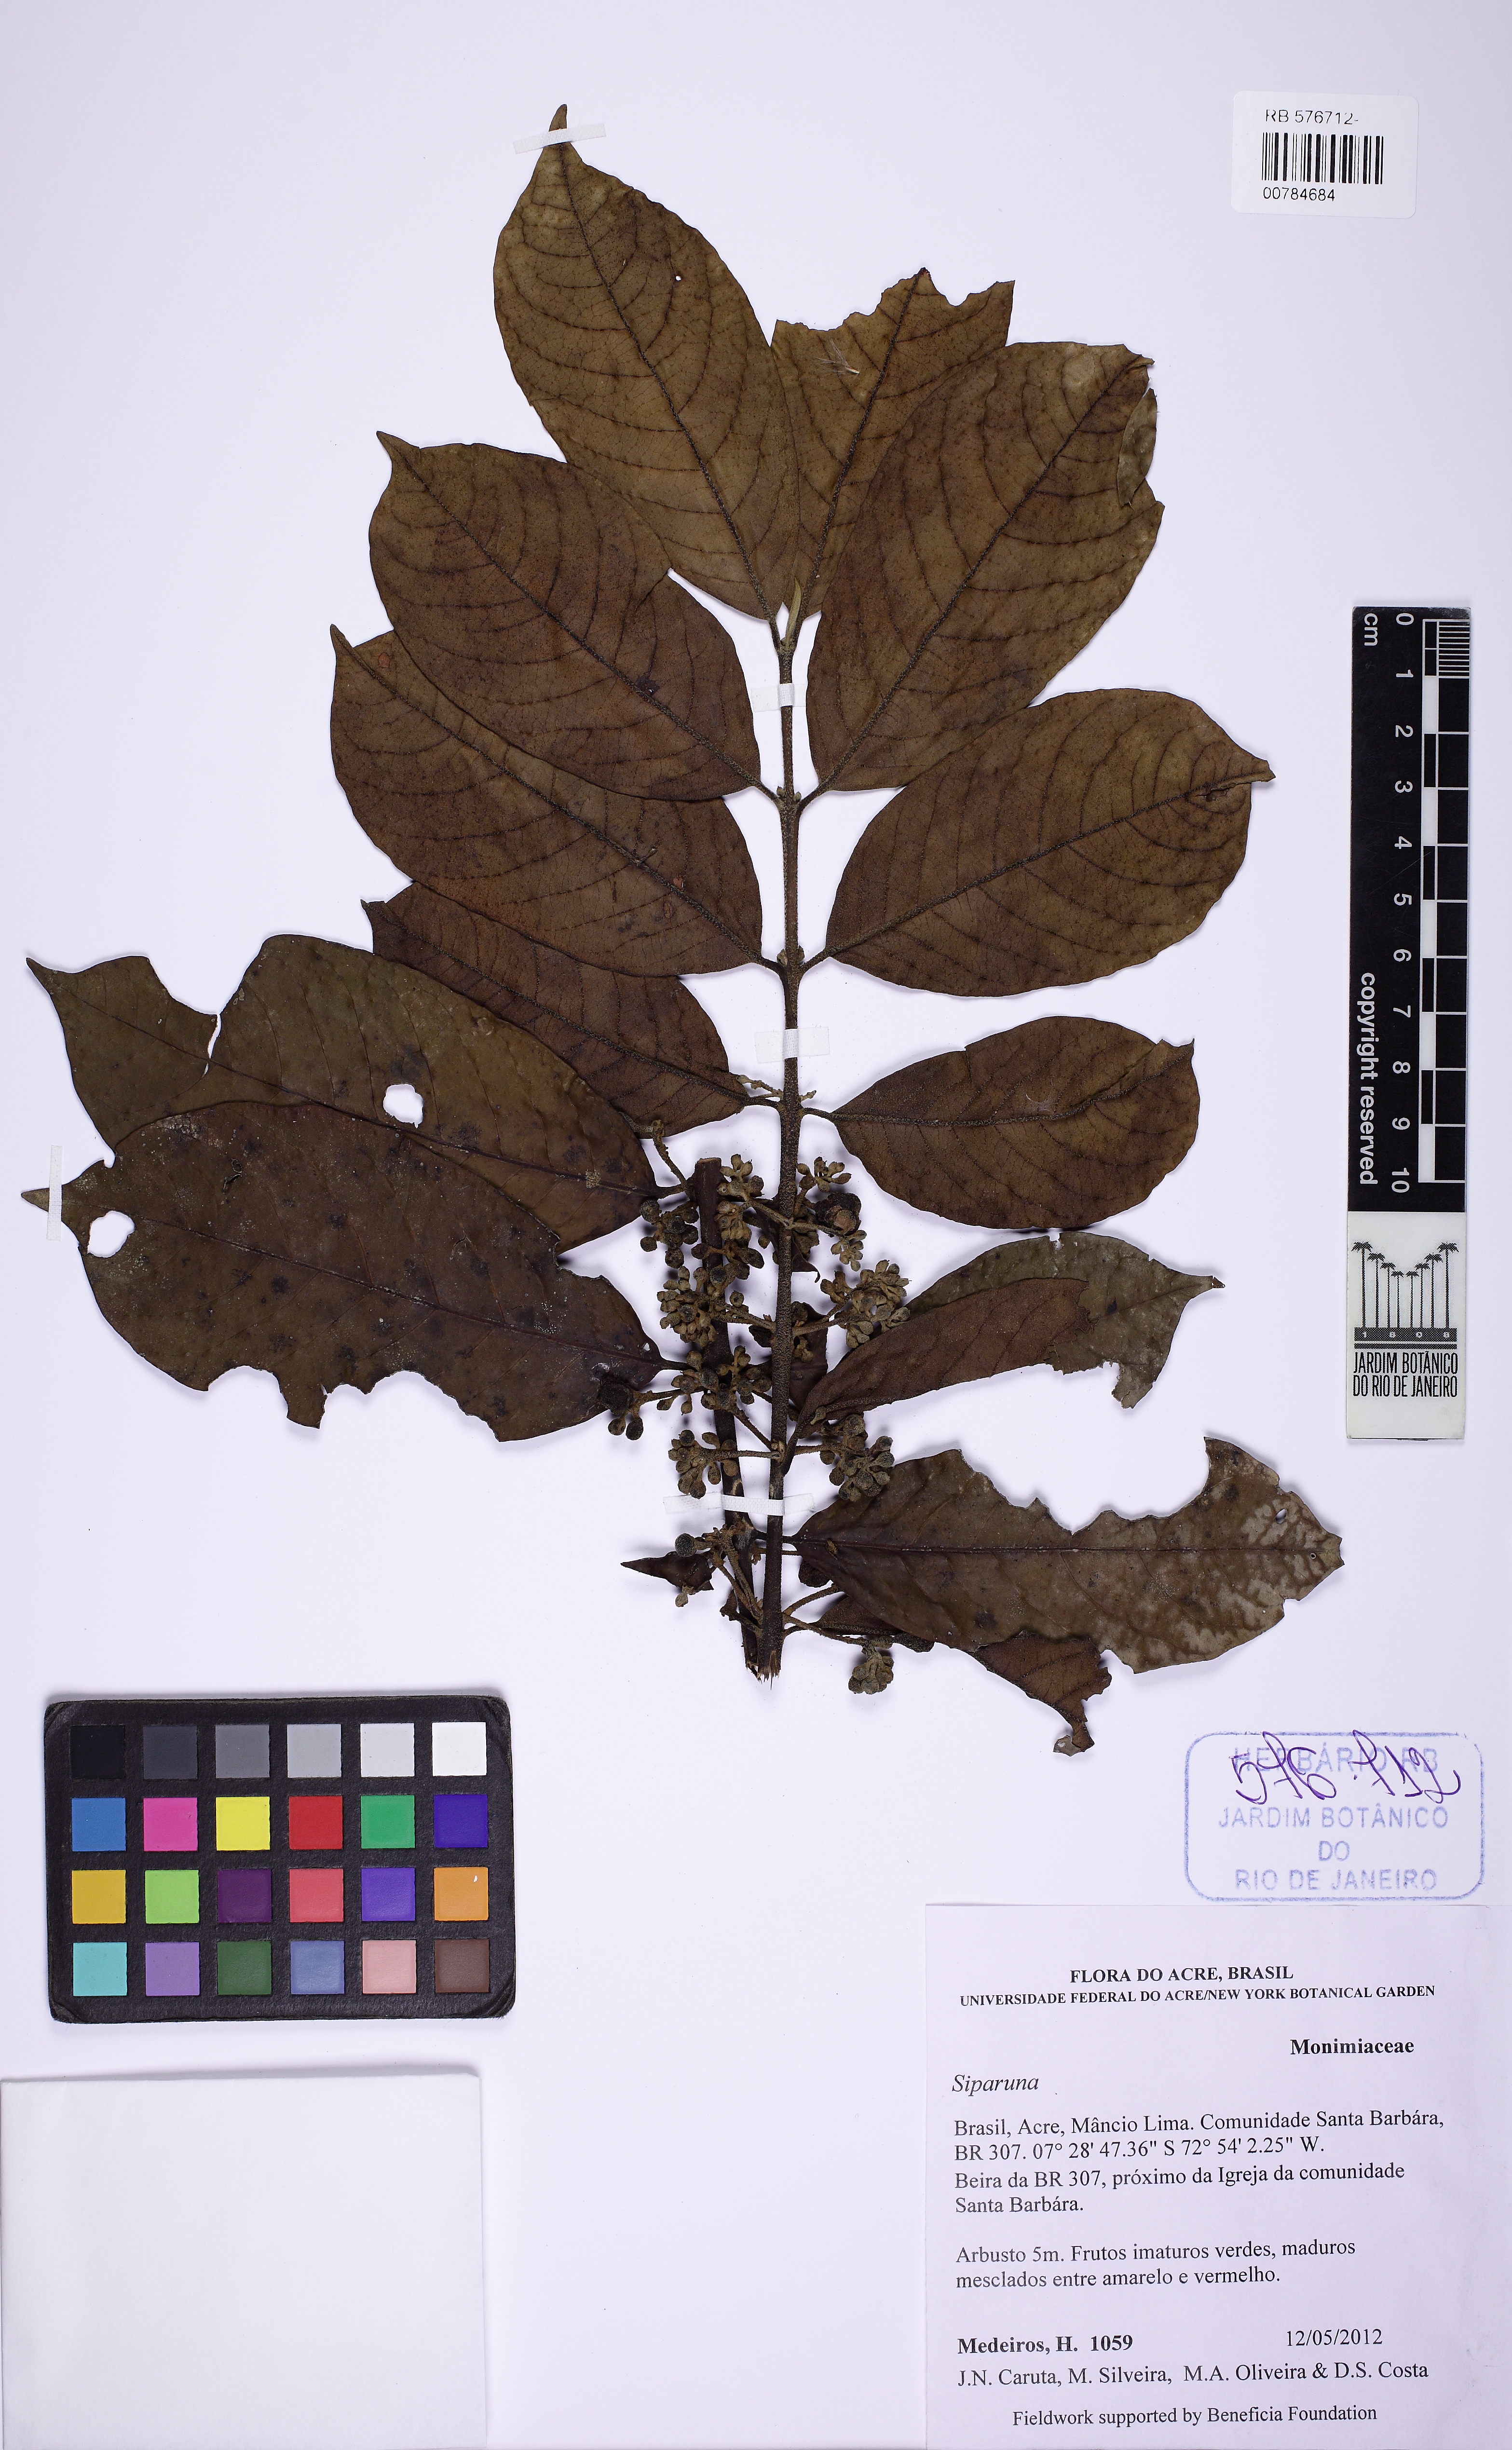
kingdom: Plantae
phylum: Tracheophyta
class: Magnoliopsida
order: Laurales
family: Siparunaceae
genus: Siparuna
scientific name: Siparuna
